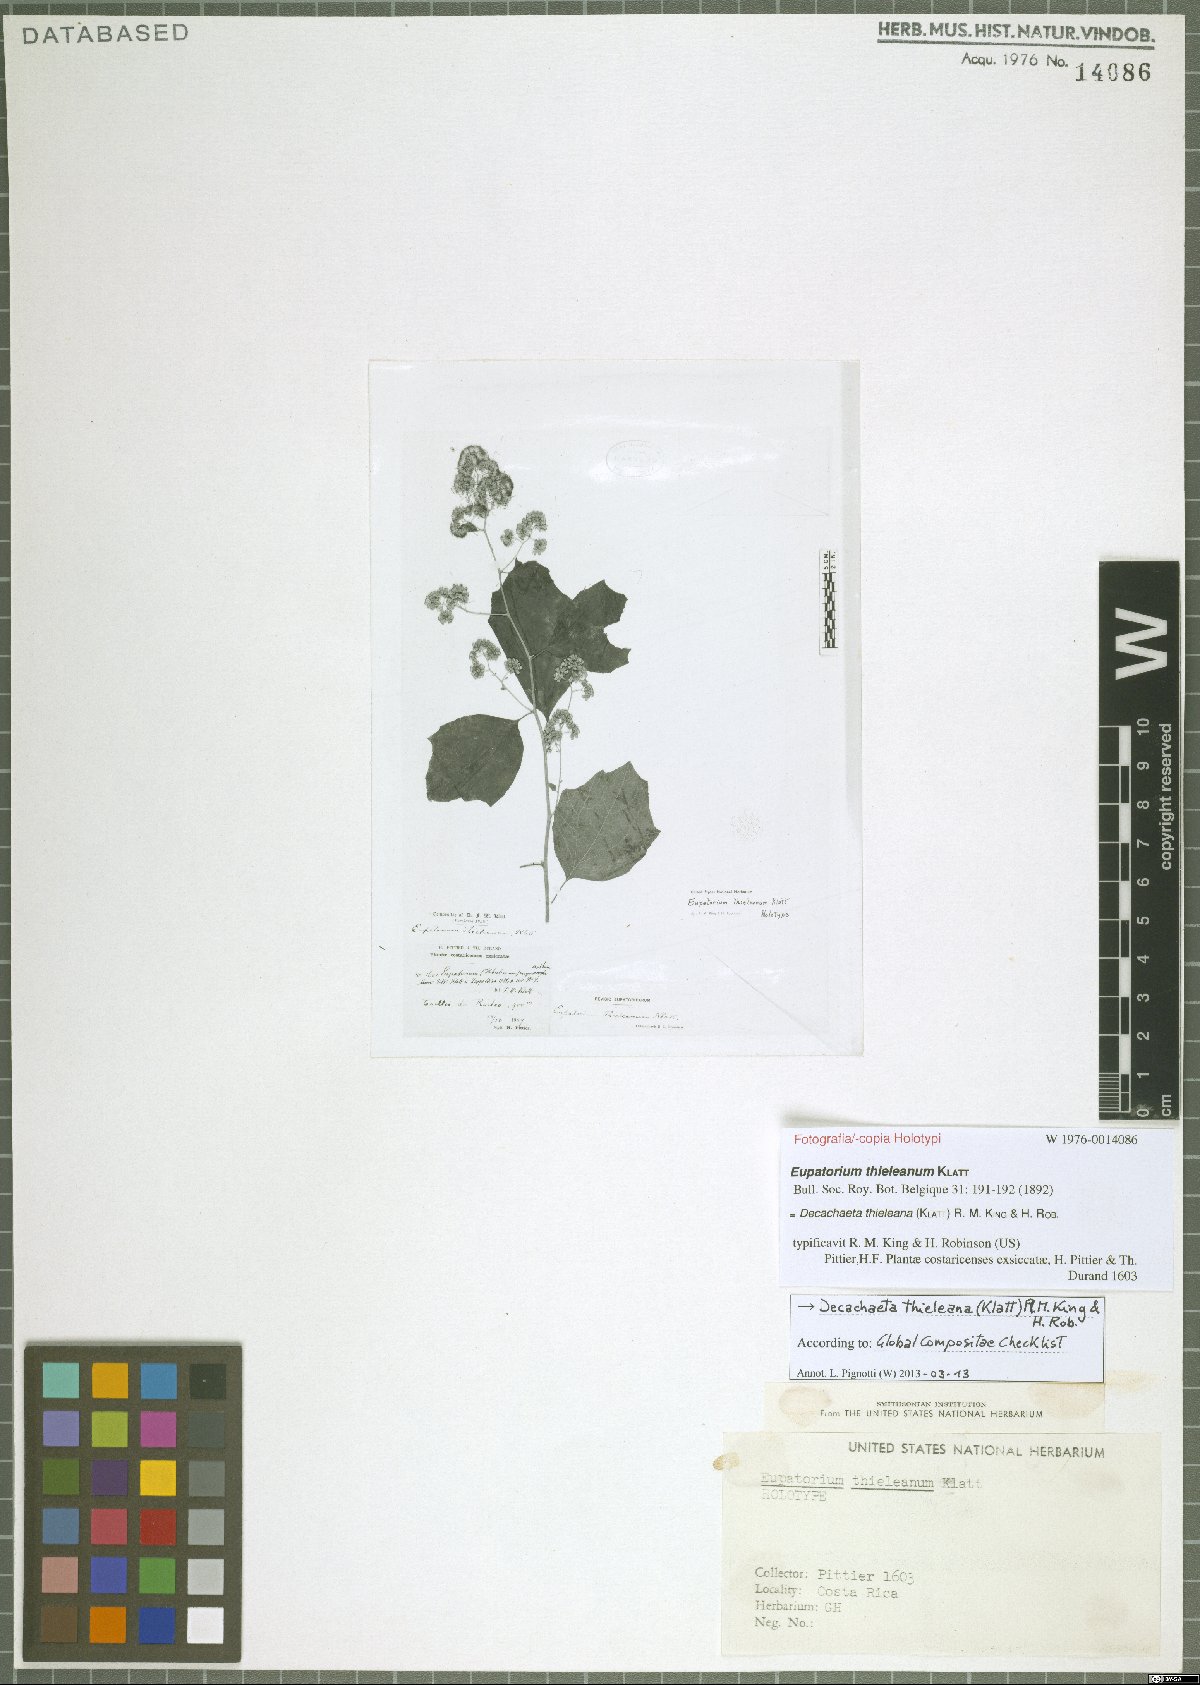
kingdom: Plantae
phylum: Tracheophyta
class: Magnoliopsida
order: Asterales
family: Asteraceae
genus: Decachaeta
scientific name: Decachaeta thieleana
